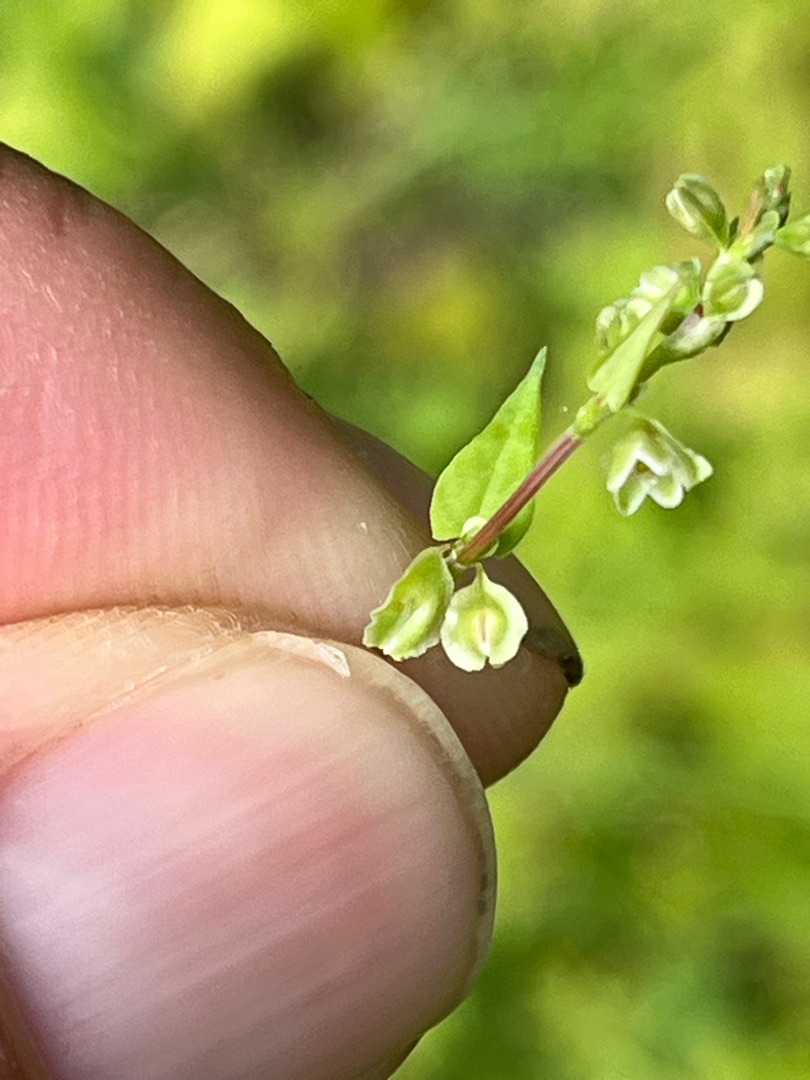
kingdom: Plantae
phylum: Tracheophyta
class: Magnoliopsida
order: Caryophyllales
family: Polygonaceae
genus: Fallopia
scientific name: Fallopia dumetorum
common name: Vinge-pileurt
